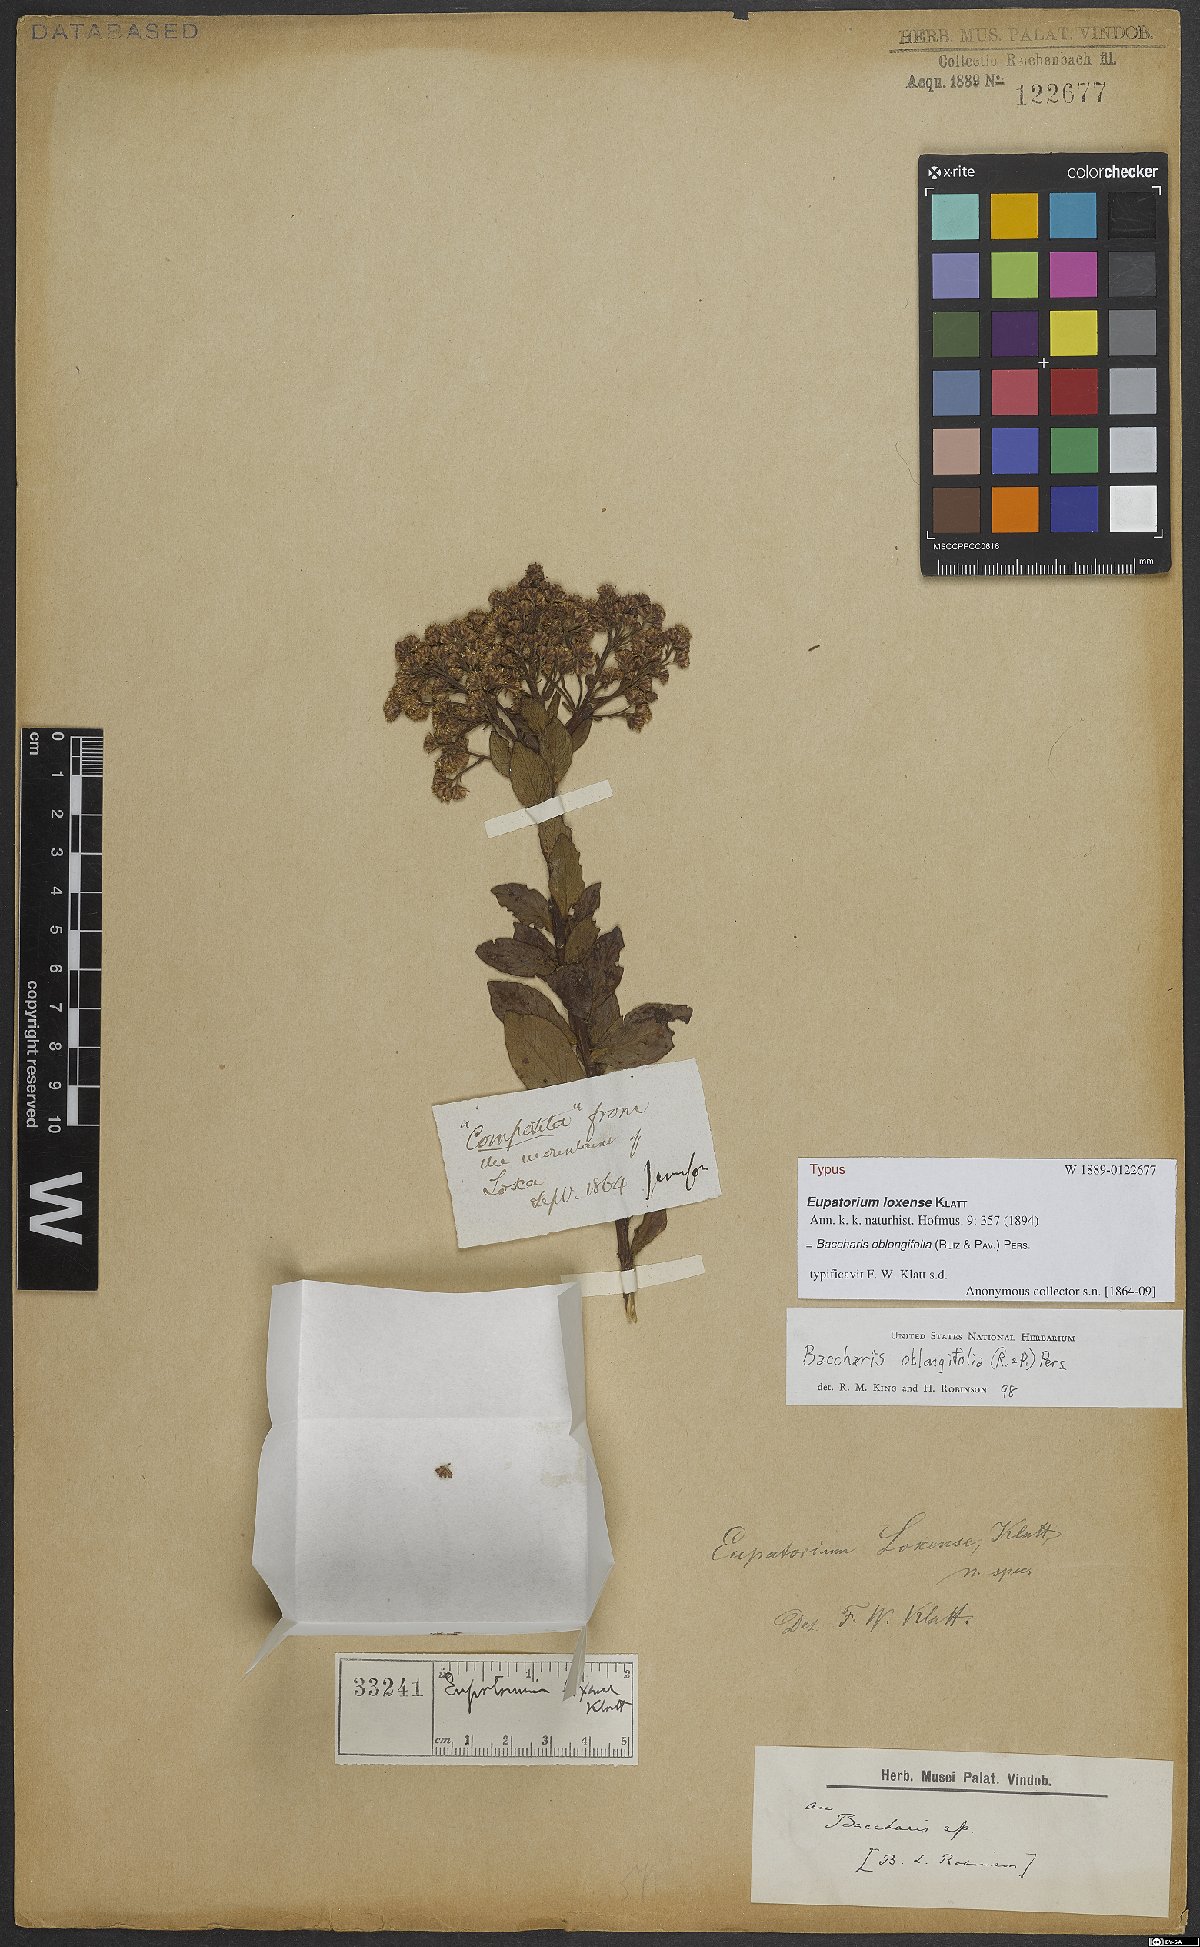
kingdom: Plantae
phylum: Tracheophyta
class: Magnoliopsida
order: Asterales
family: Asteraceae
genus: Baccharis
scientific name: Baccharis oblongifolia
